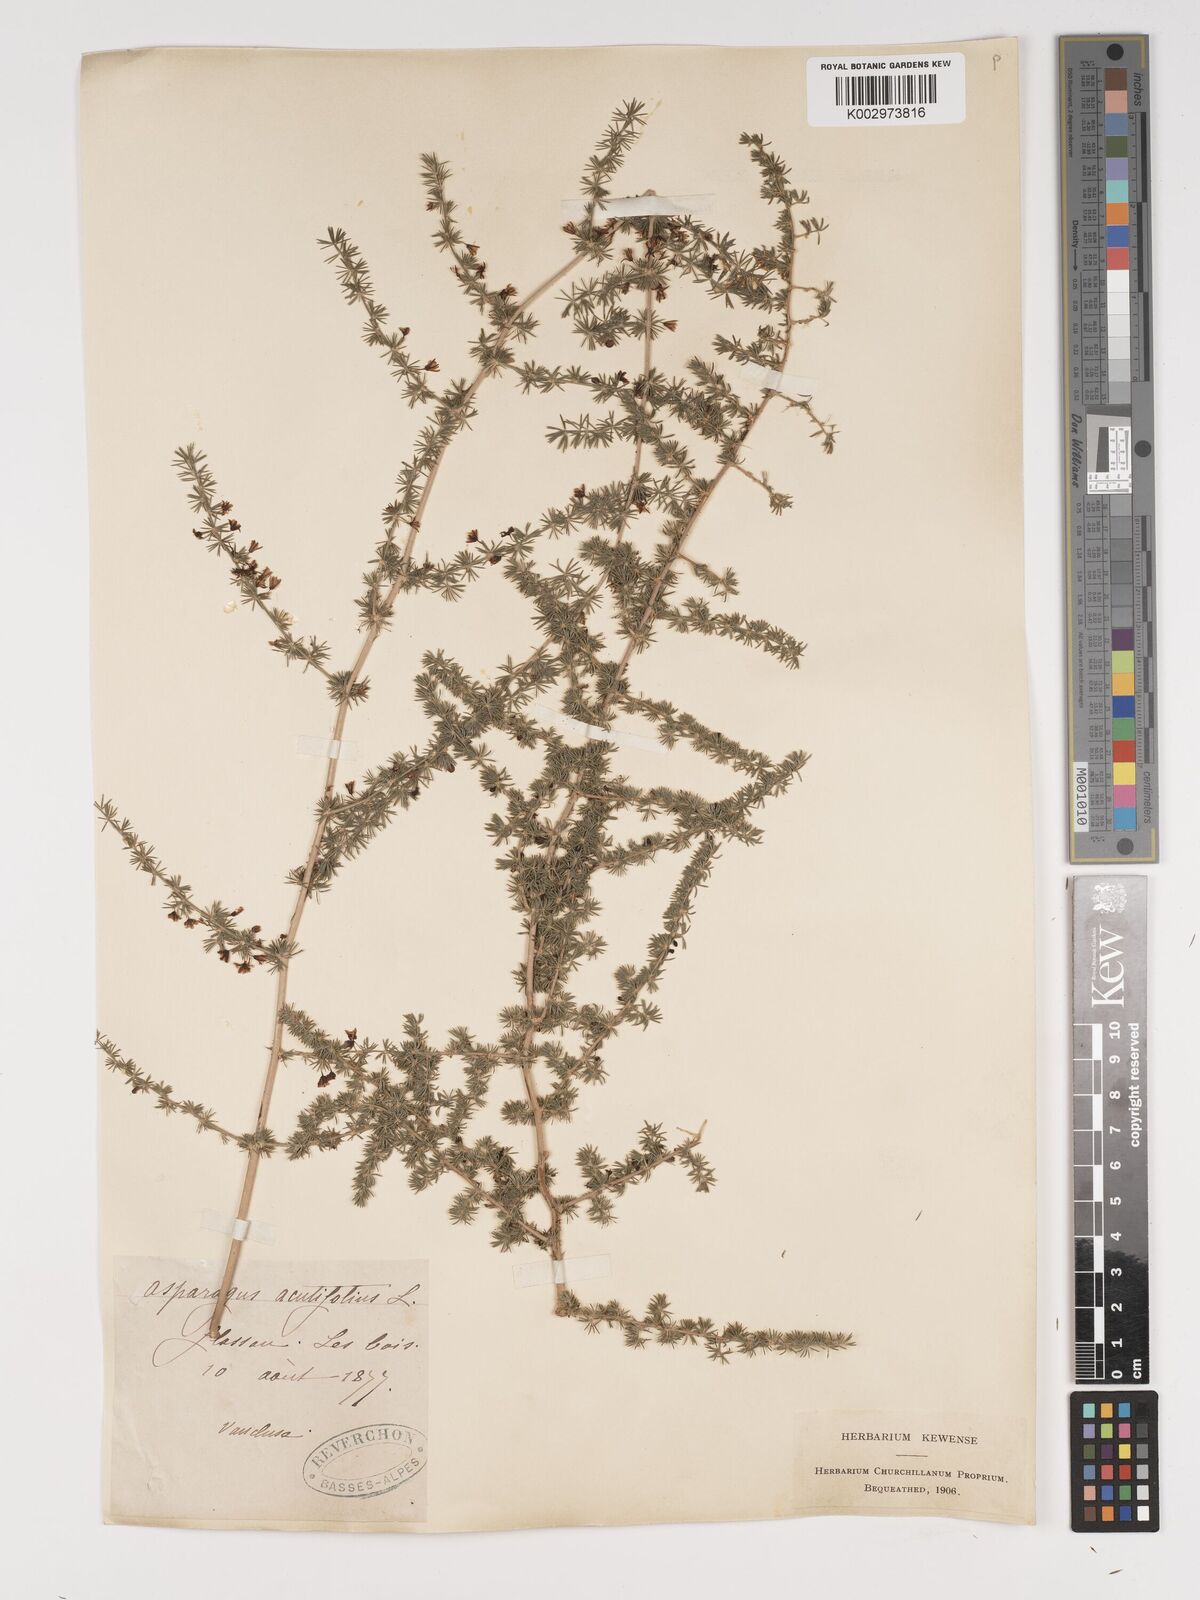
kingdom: Plantae
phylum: Tracheophyta
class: Liliopsida
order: Asparagales
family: Asparagaceae
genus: Asparagus
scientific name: Asparagus aethiopicus
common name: Sprenger's asparagus fern
